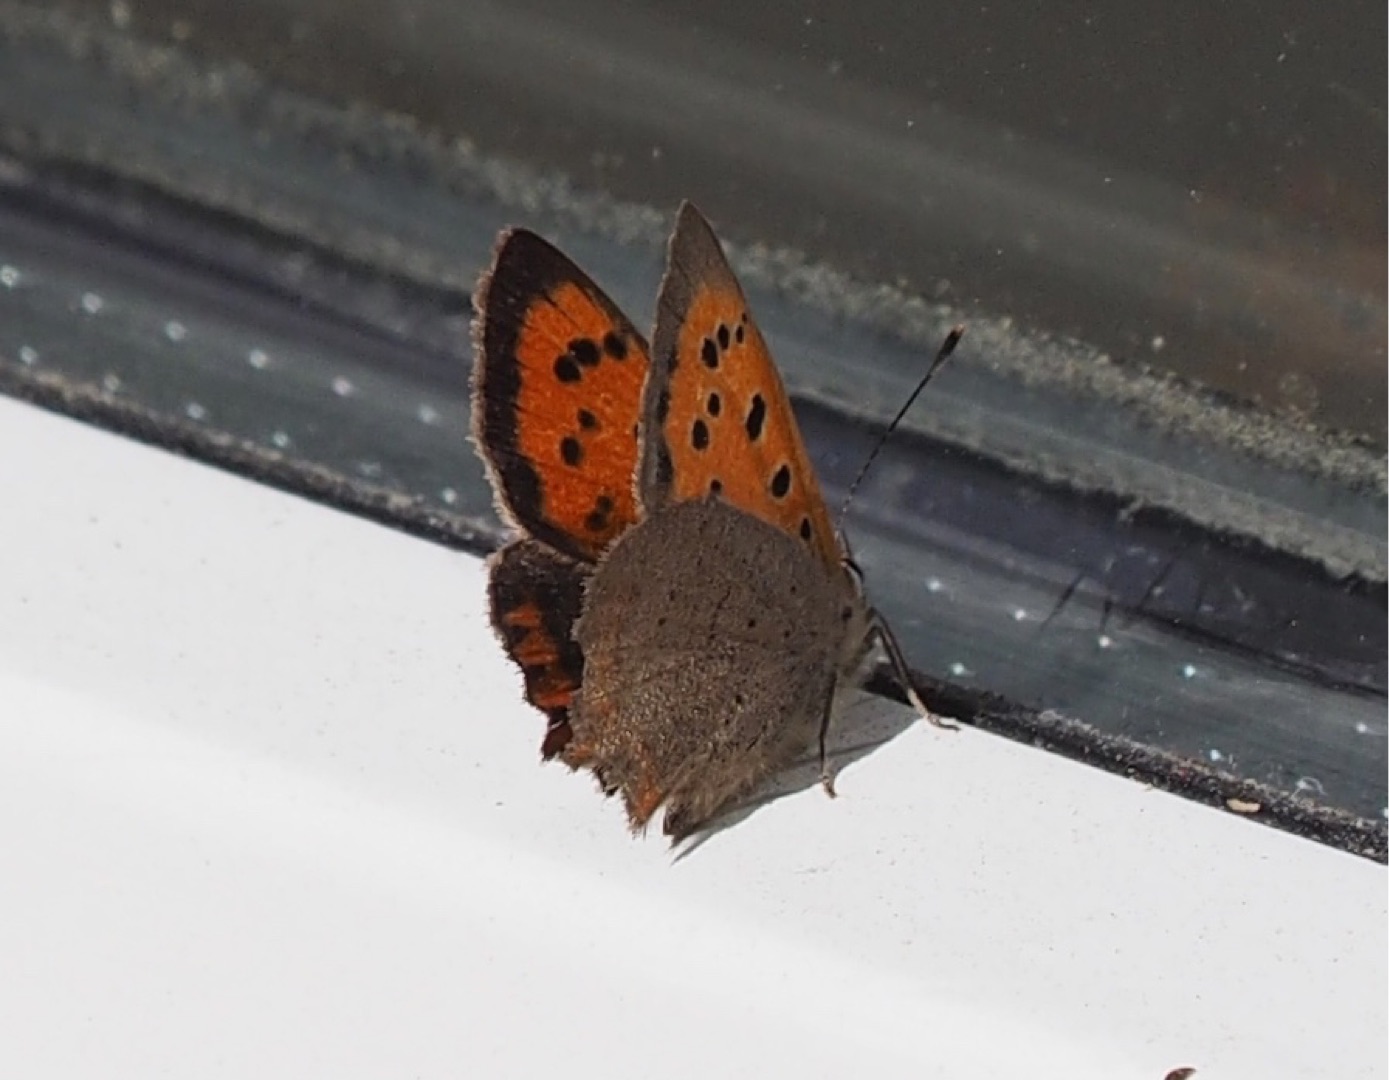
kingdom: Animalia
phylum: Arthropoda
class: Insecta
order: Lepidoptera
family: Lycaenidae
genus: Lycaena
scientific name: Lycaena phlaeas
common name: Lille ildfugl
